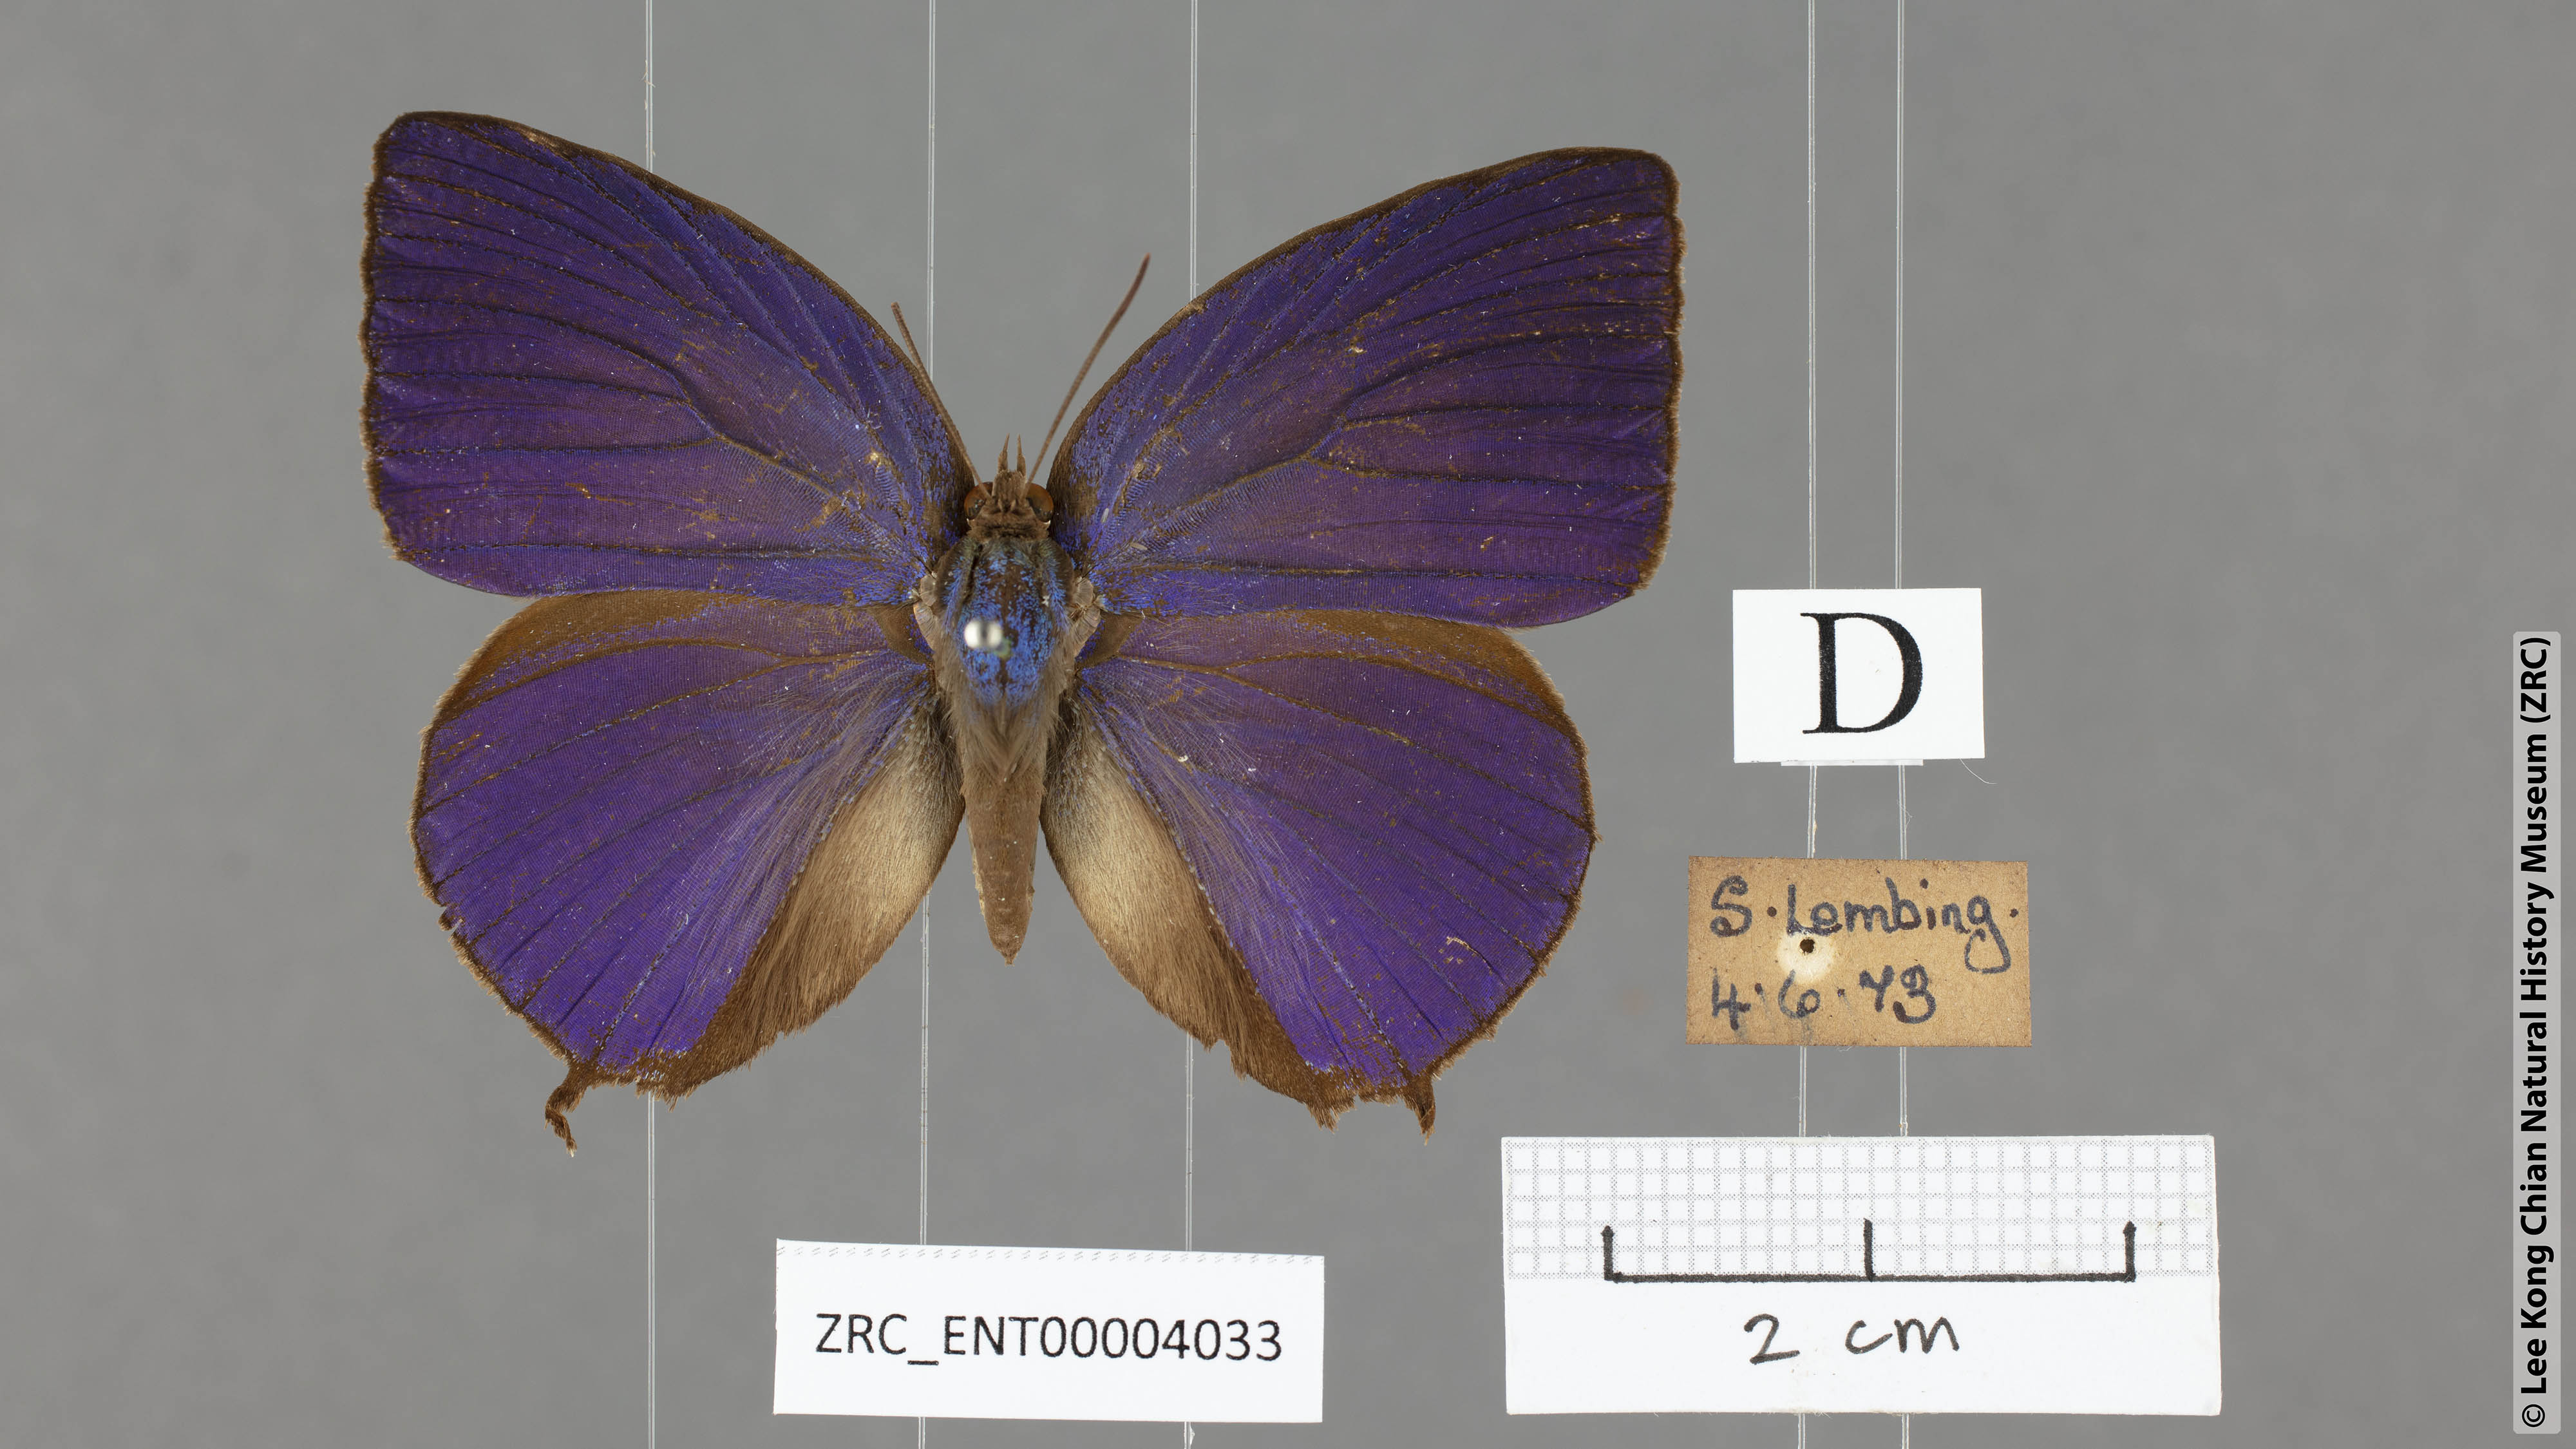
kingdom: Animalia
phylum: Arthropoda
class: Insecta
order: Lepidoptera
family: Lycaenidae
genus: Arhopala
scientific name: Arhopala centaurus
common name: Dull oak-blue
